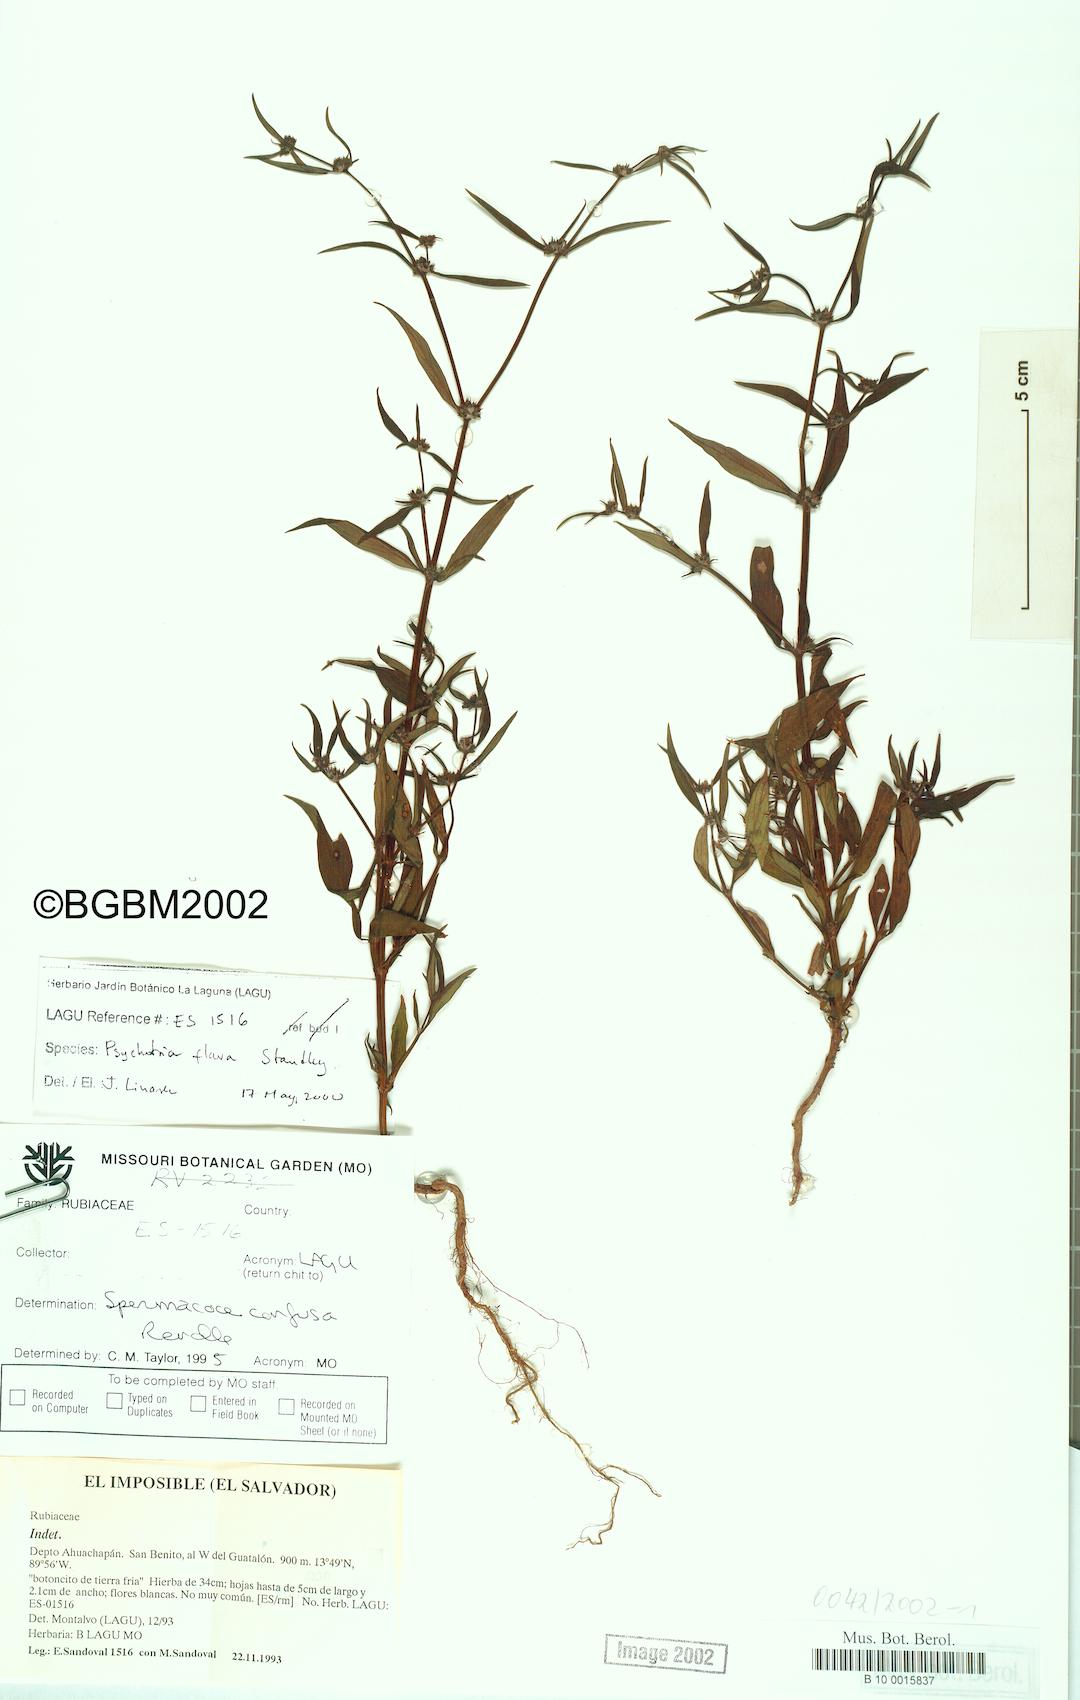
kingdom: Plantae
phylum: Tracheophyta
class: Magnoliopsida
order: Gentianales
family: Rubiaceae
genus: Spermacoce
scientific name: Spermacoce confusa
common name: Iron-grass
